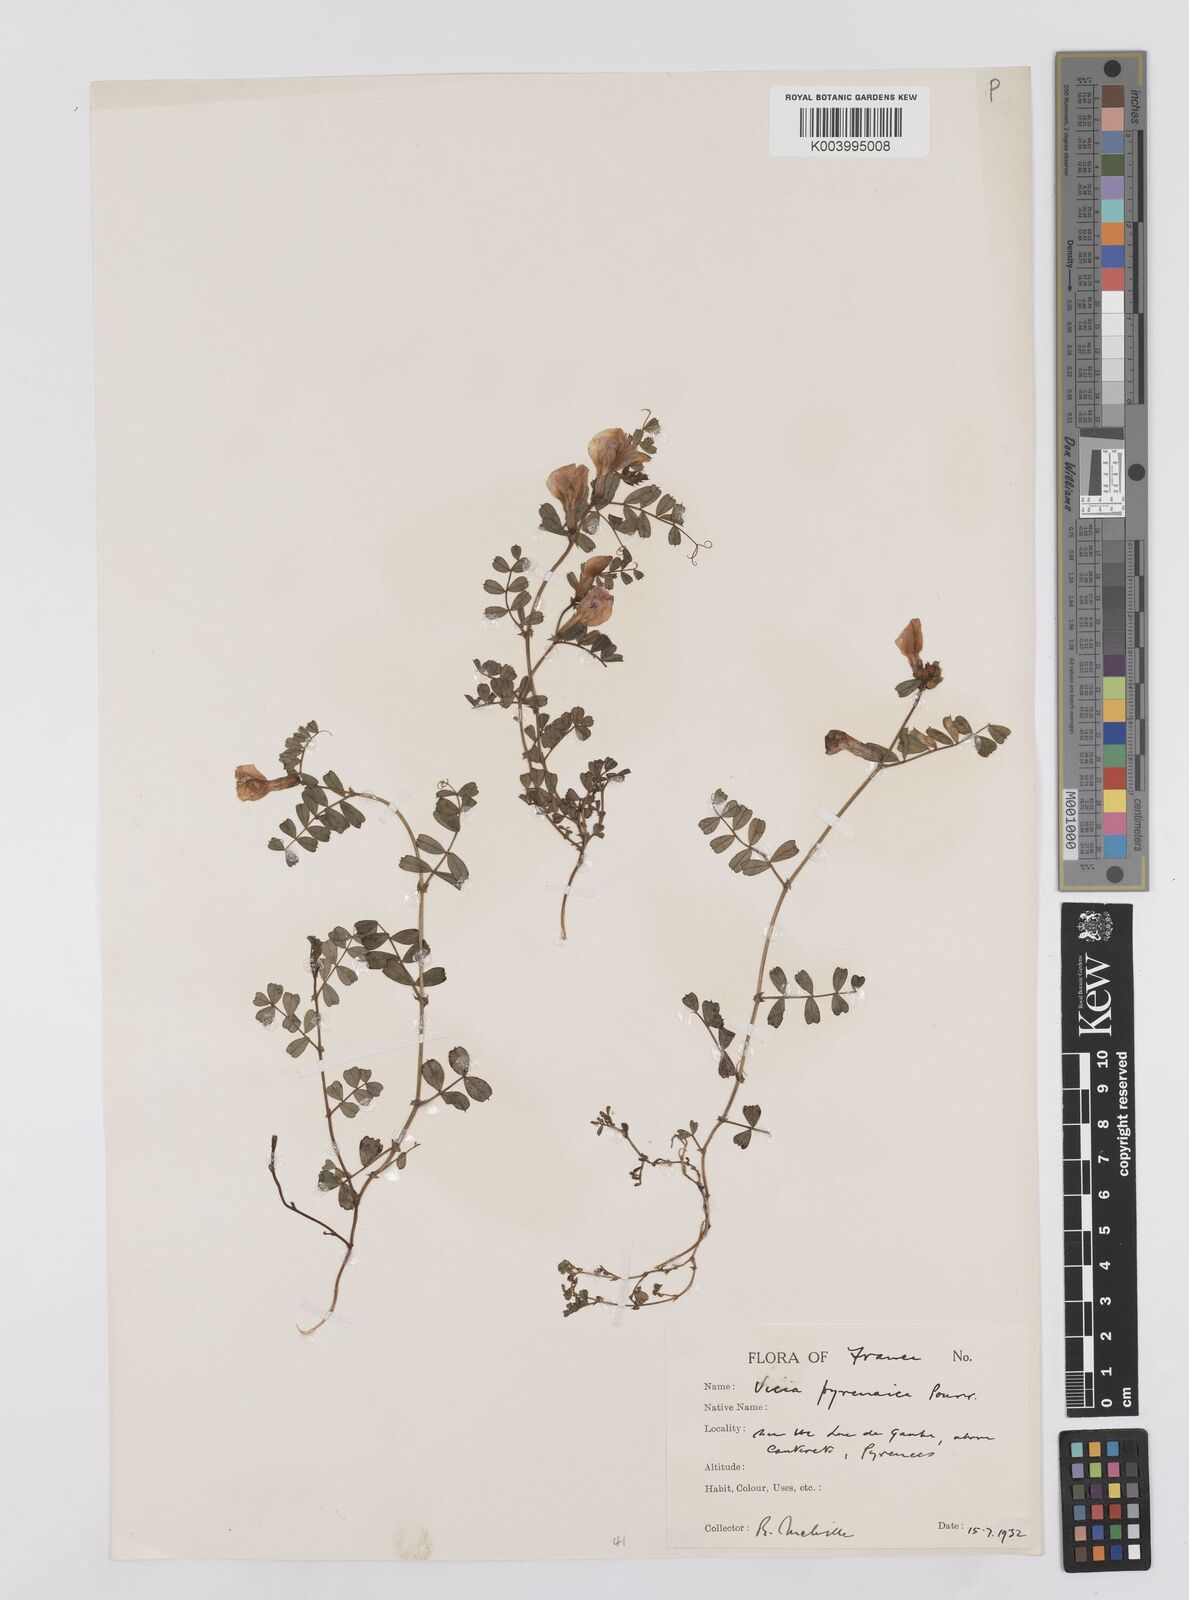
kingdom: Plantae
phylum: Tracheophyta
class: Magnoliopsida
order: Fabales
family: Fabaceae
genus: Vicia
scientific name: Vicia pyrenaica
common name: Pyrenean vetch
